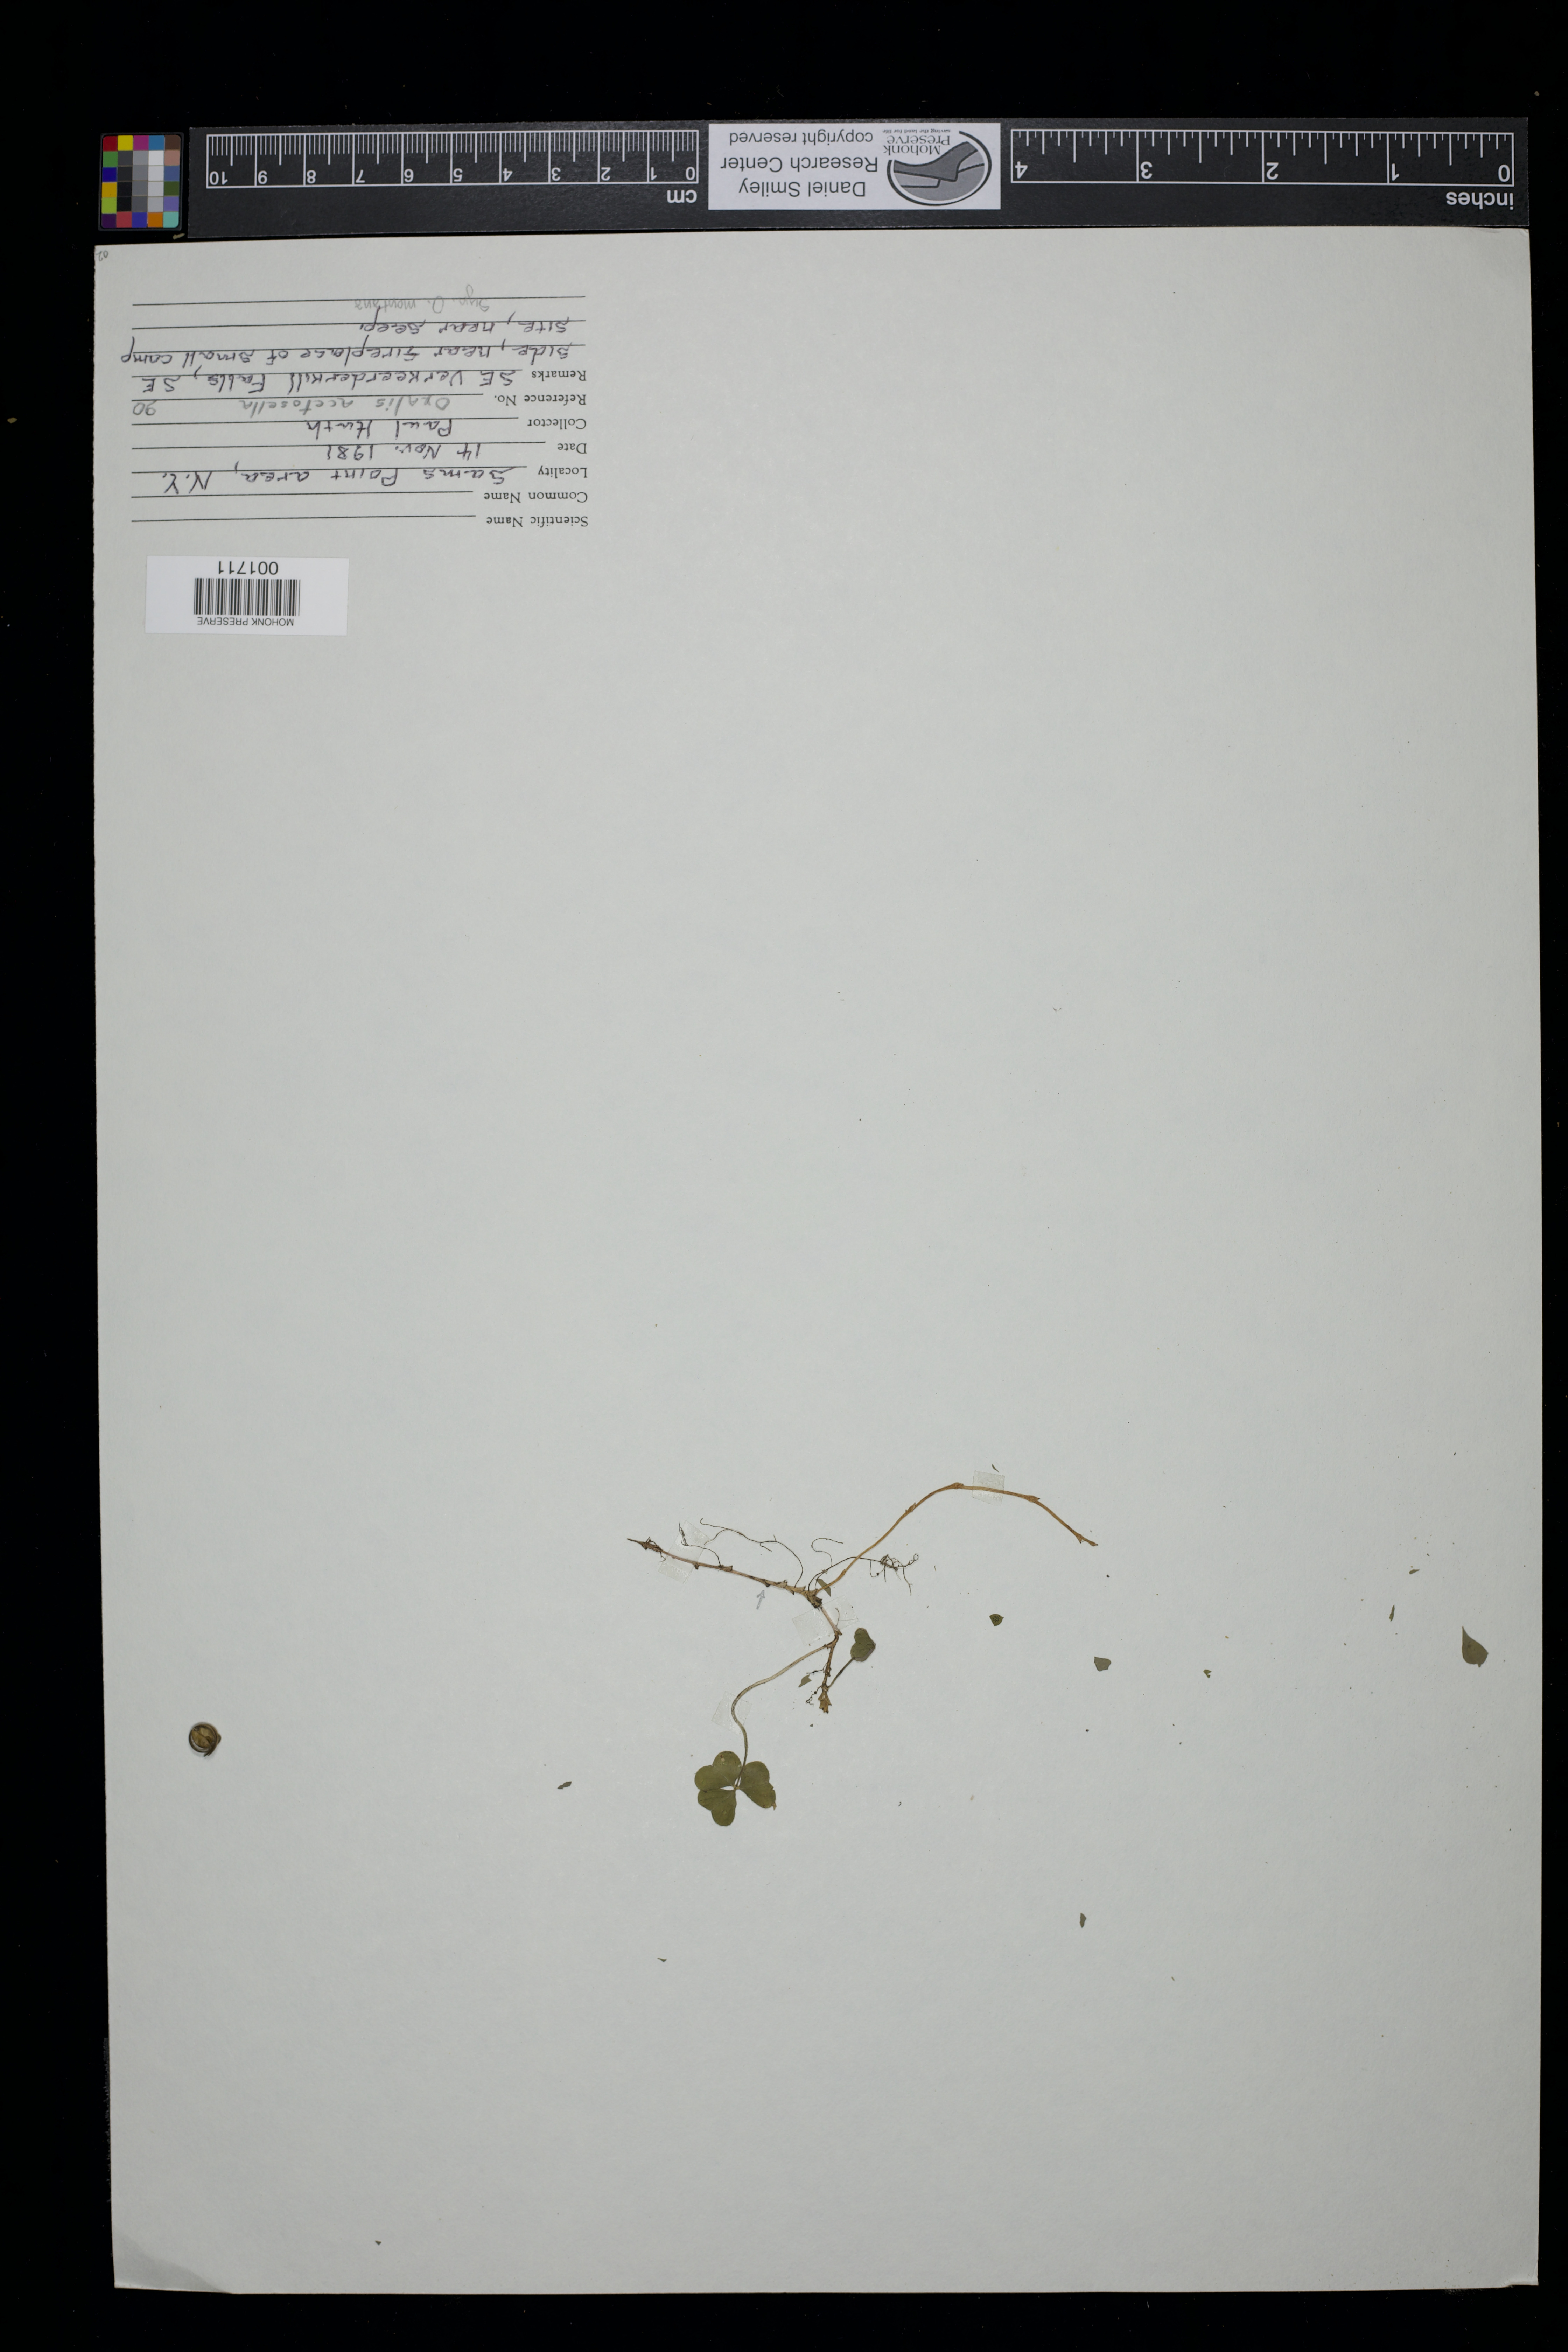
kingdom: Plantae
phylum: Tracheophyta
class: Magnoliopsida
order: Oxalidales
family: Oxalidaceae
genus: Oxalis
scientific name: Oxalis acetosella
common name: Wood-sorrel
